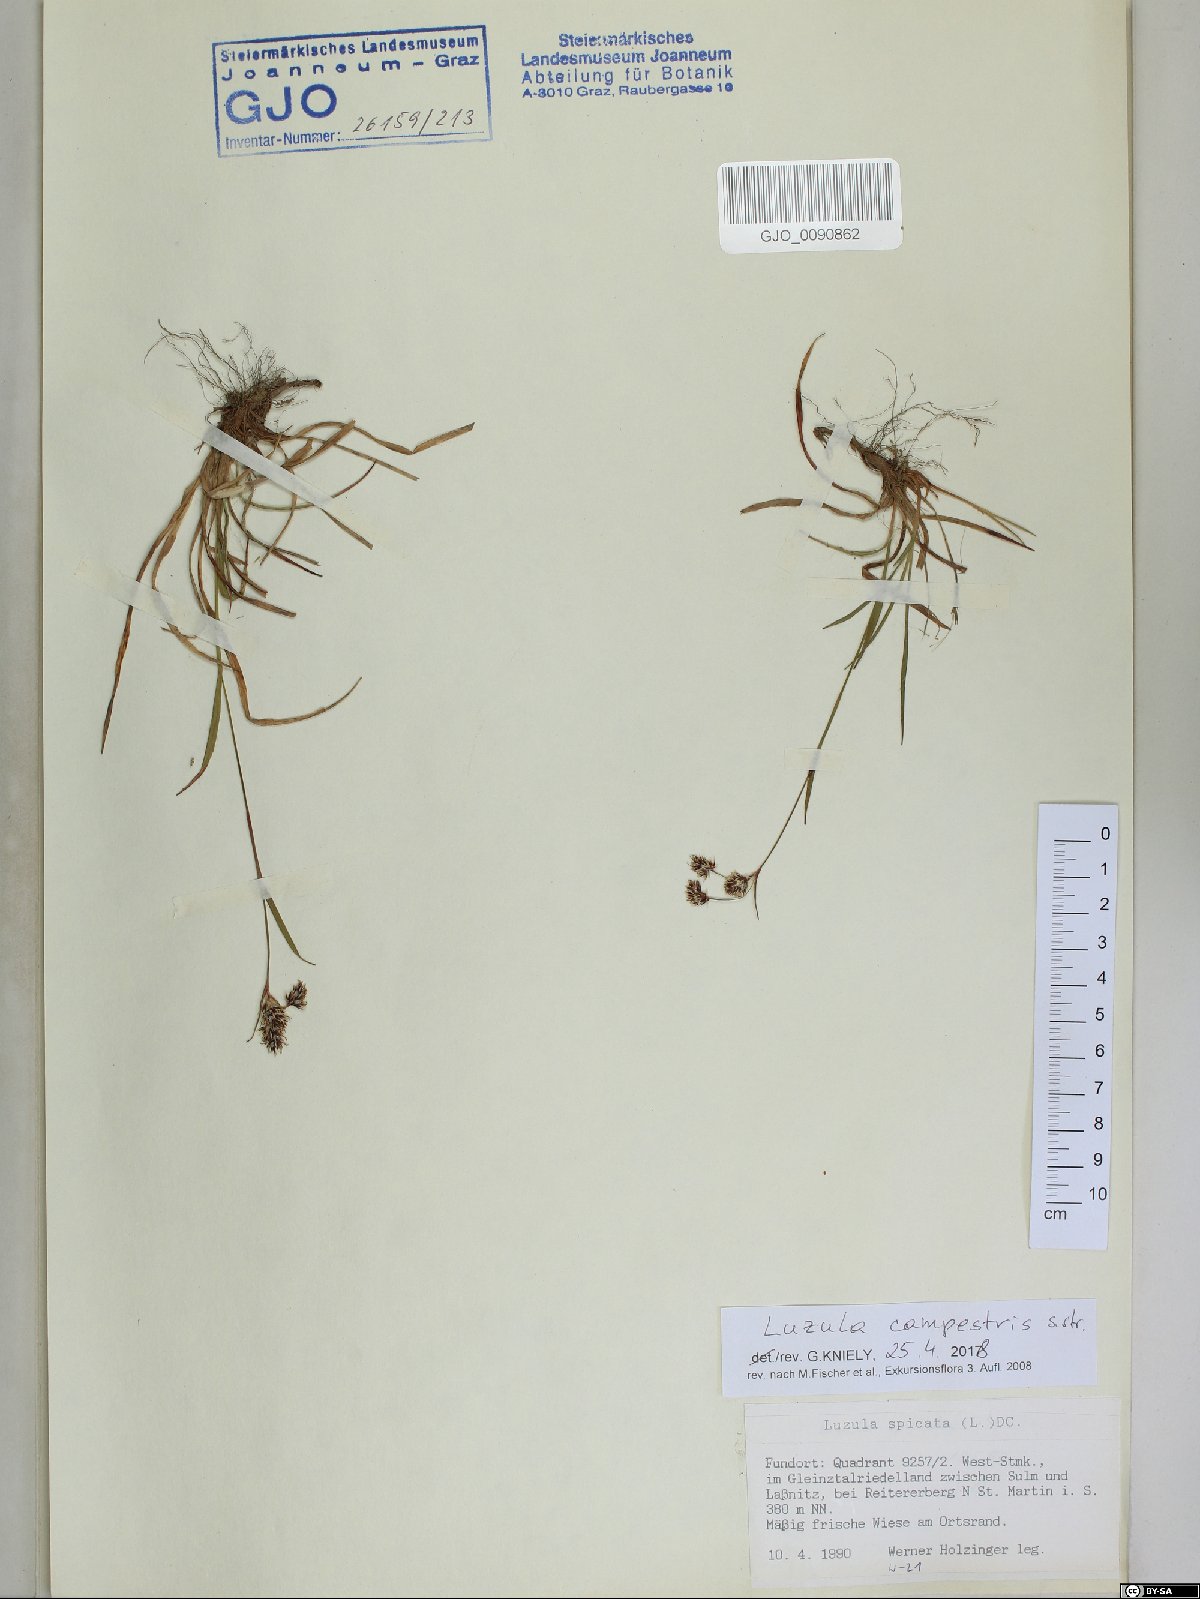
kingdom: Plantae
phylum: Tracheophyta
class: Liliopsida
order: Poales
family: Juncaceae
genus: Luzula
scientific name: Luzula campestris
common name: Field wood-rush
